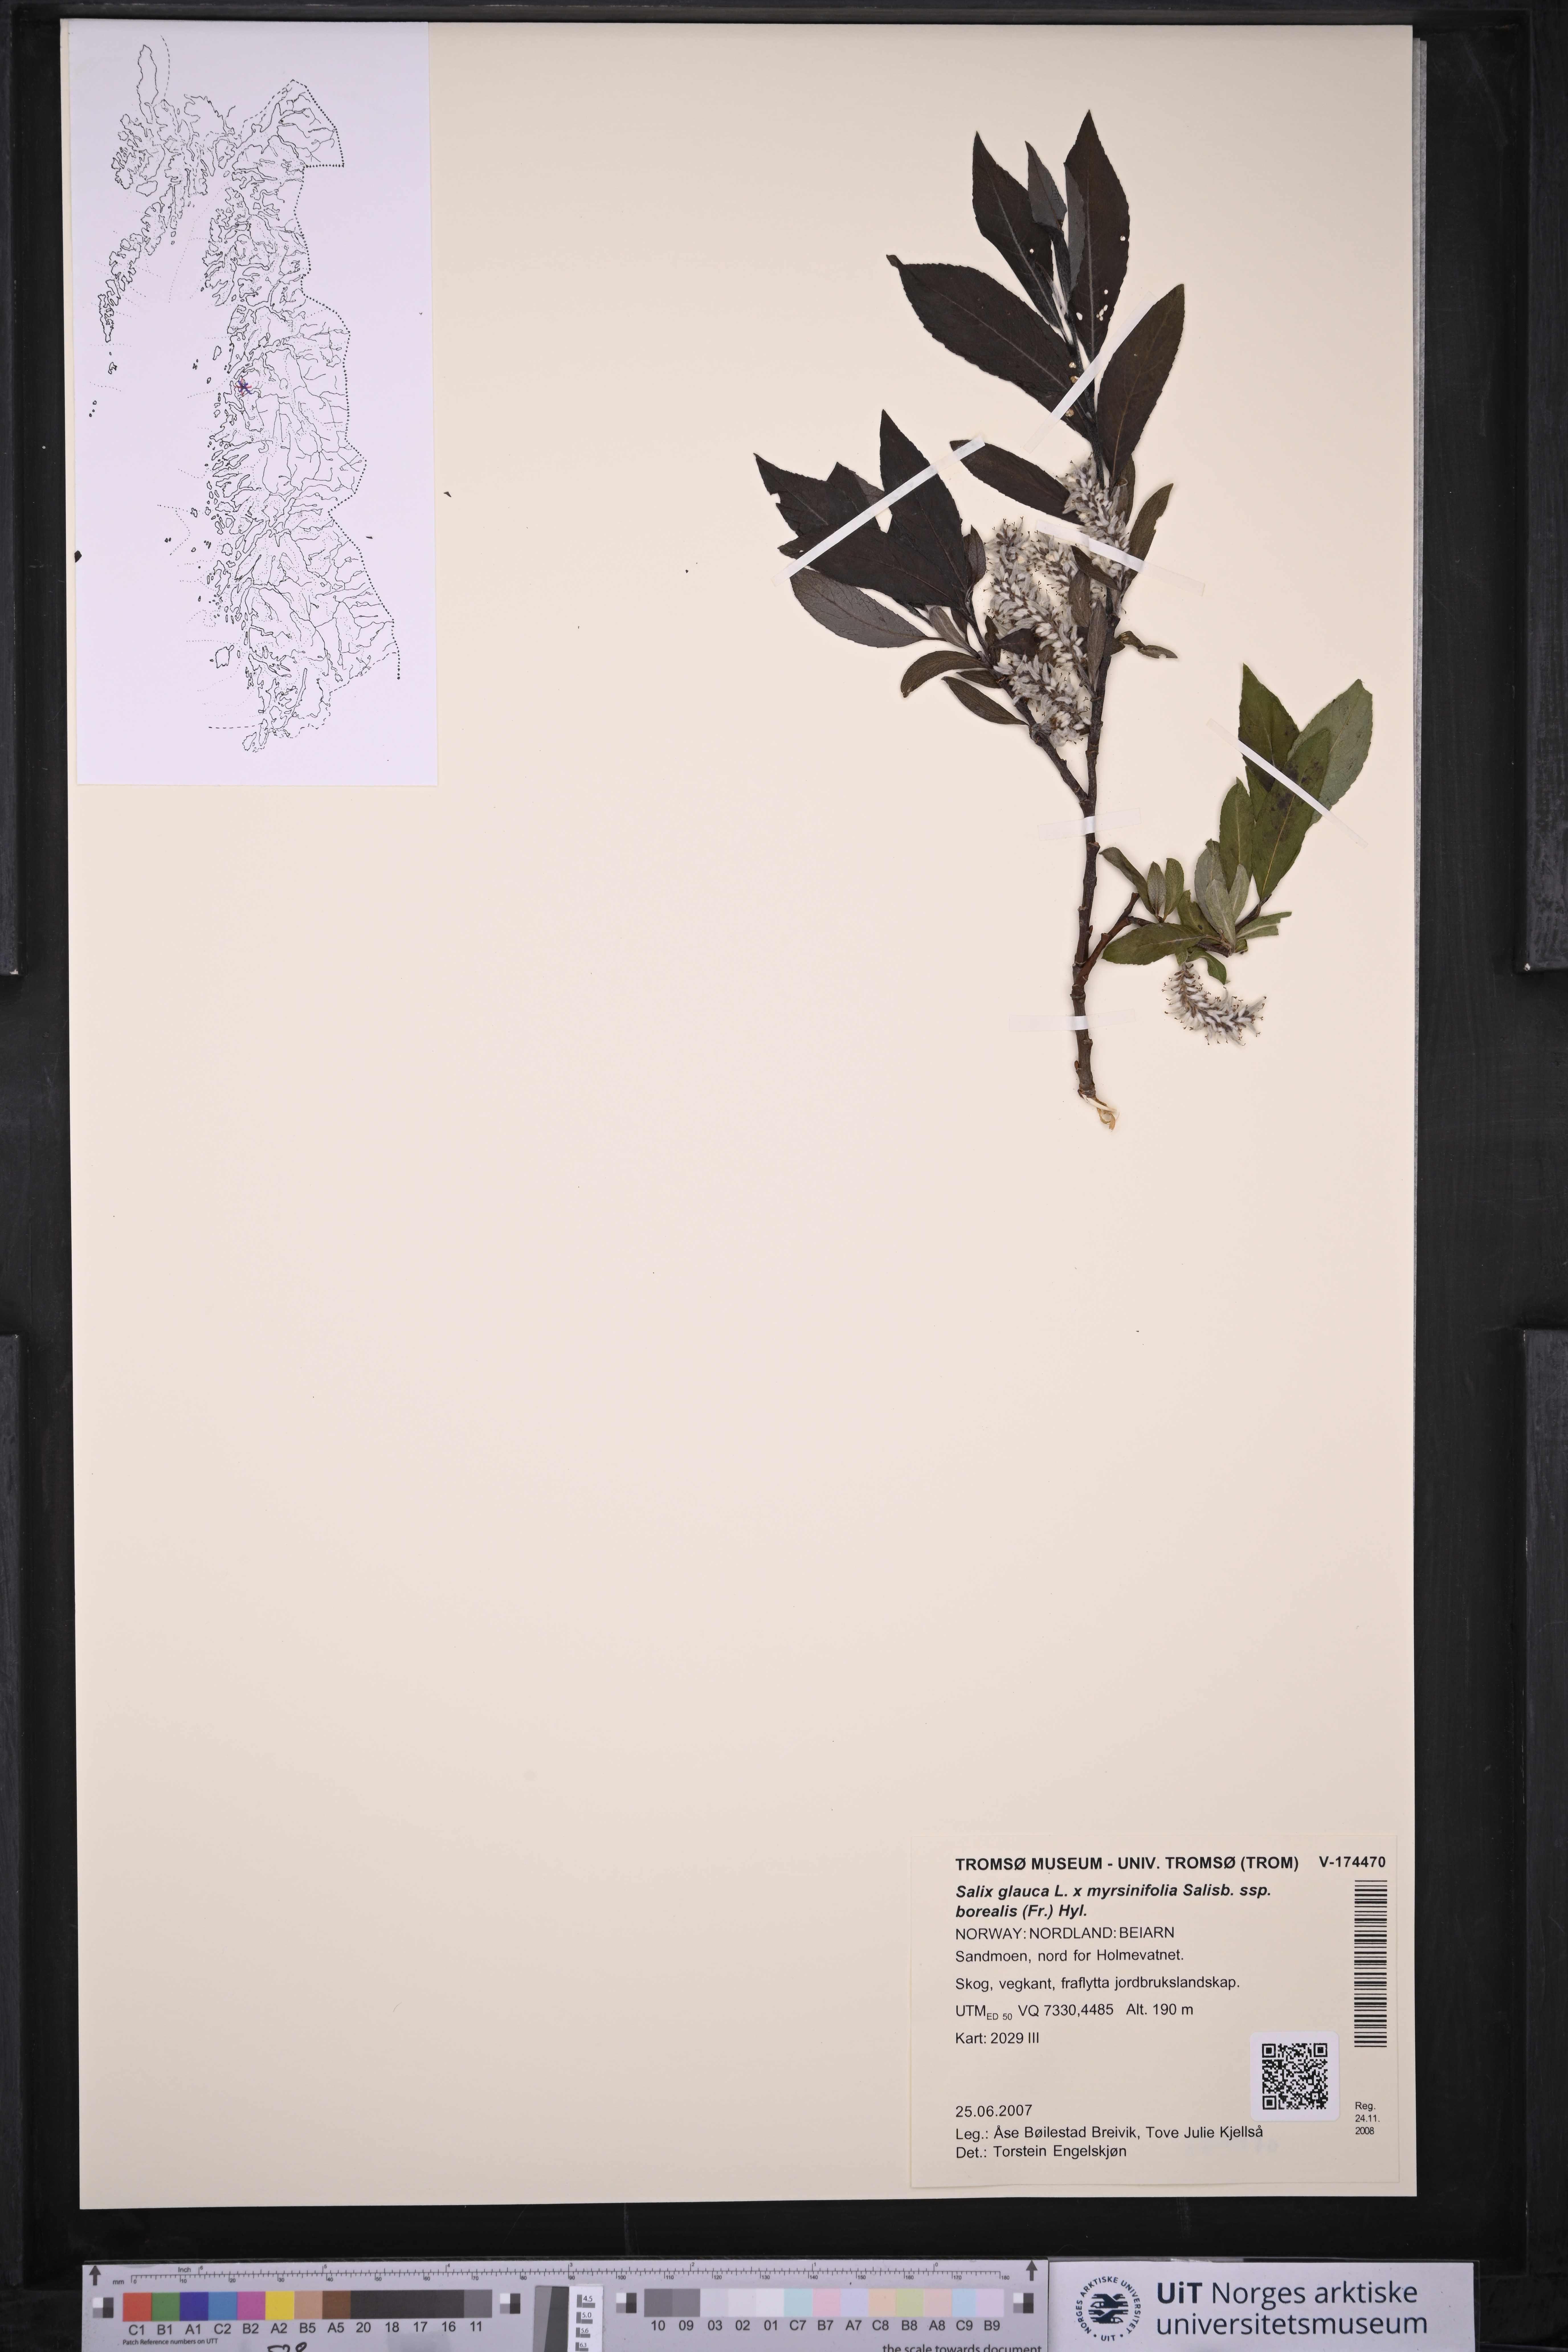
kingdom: Plantae
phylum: Tracheophyta
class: Liliopsida
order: Poales
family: Juncaceae
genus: Juncus
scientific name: Juncus filiformis
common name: Thread rush
